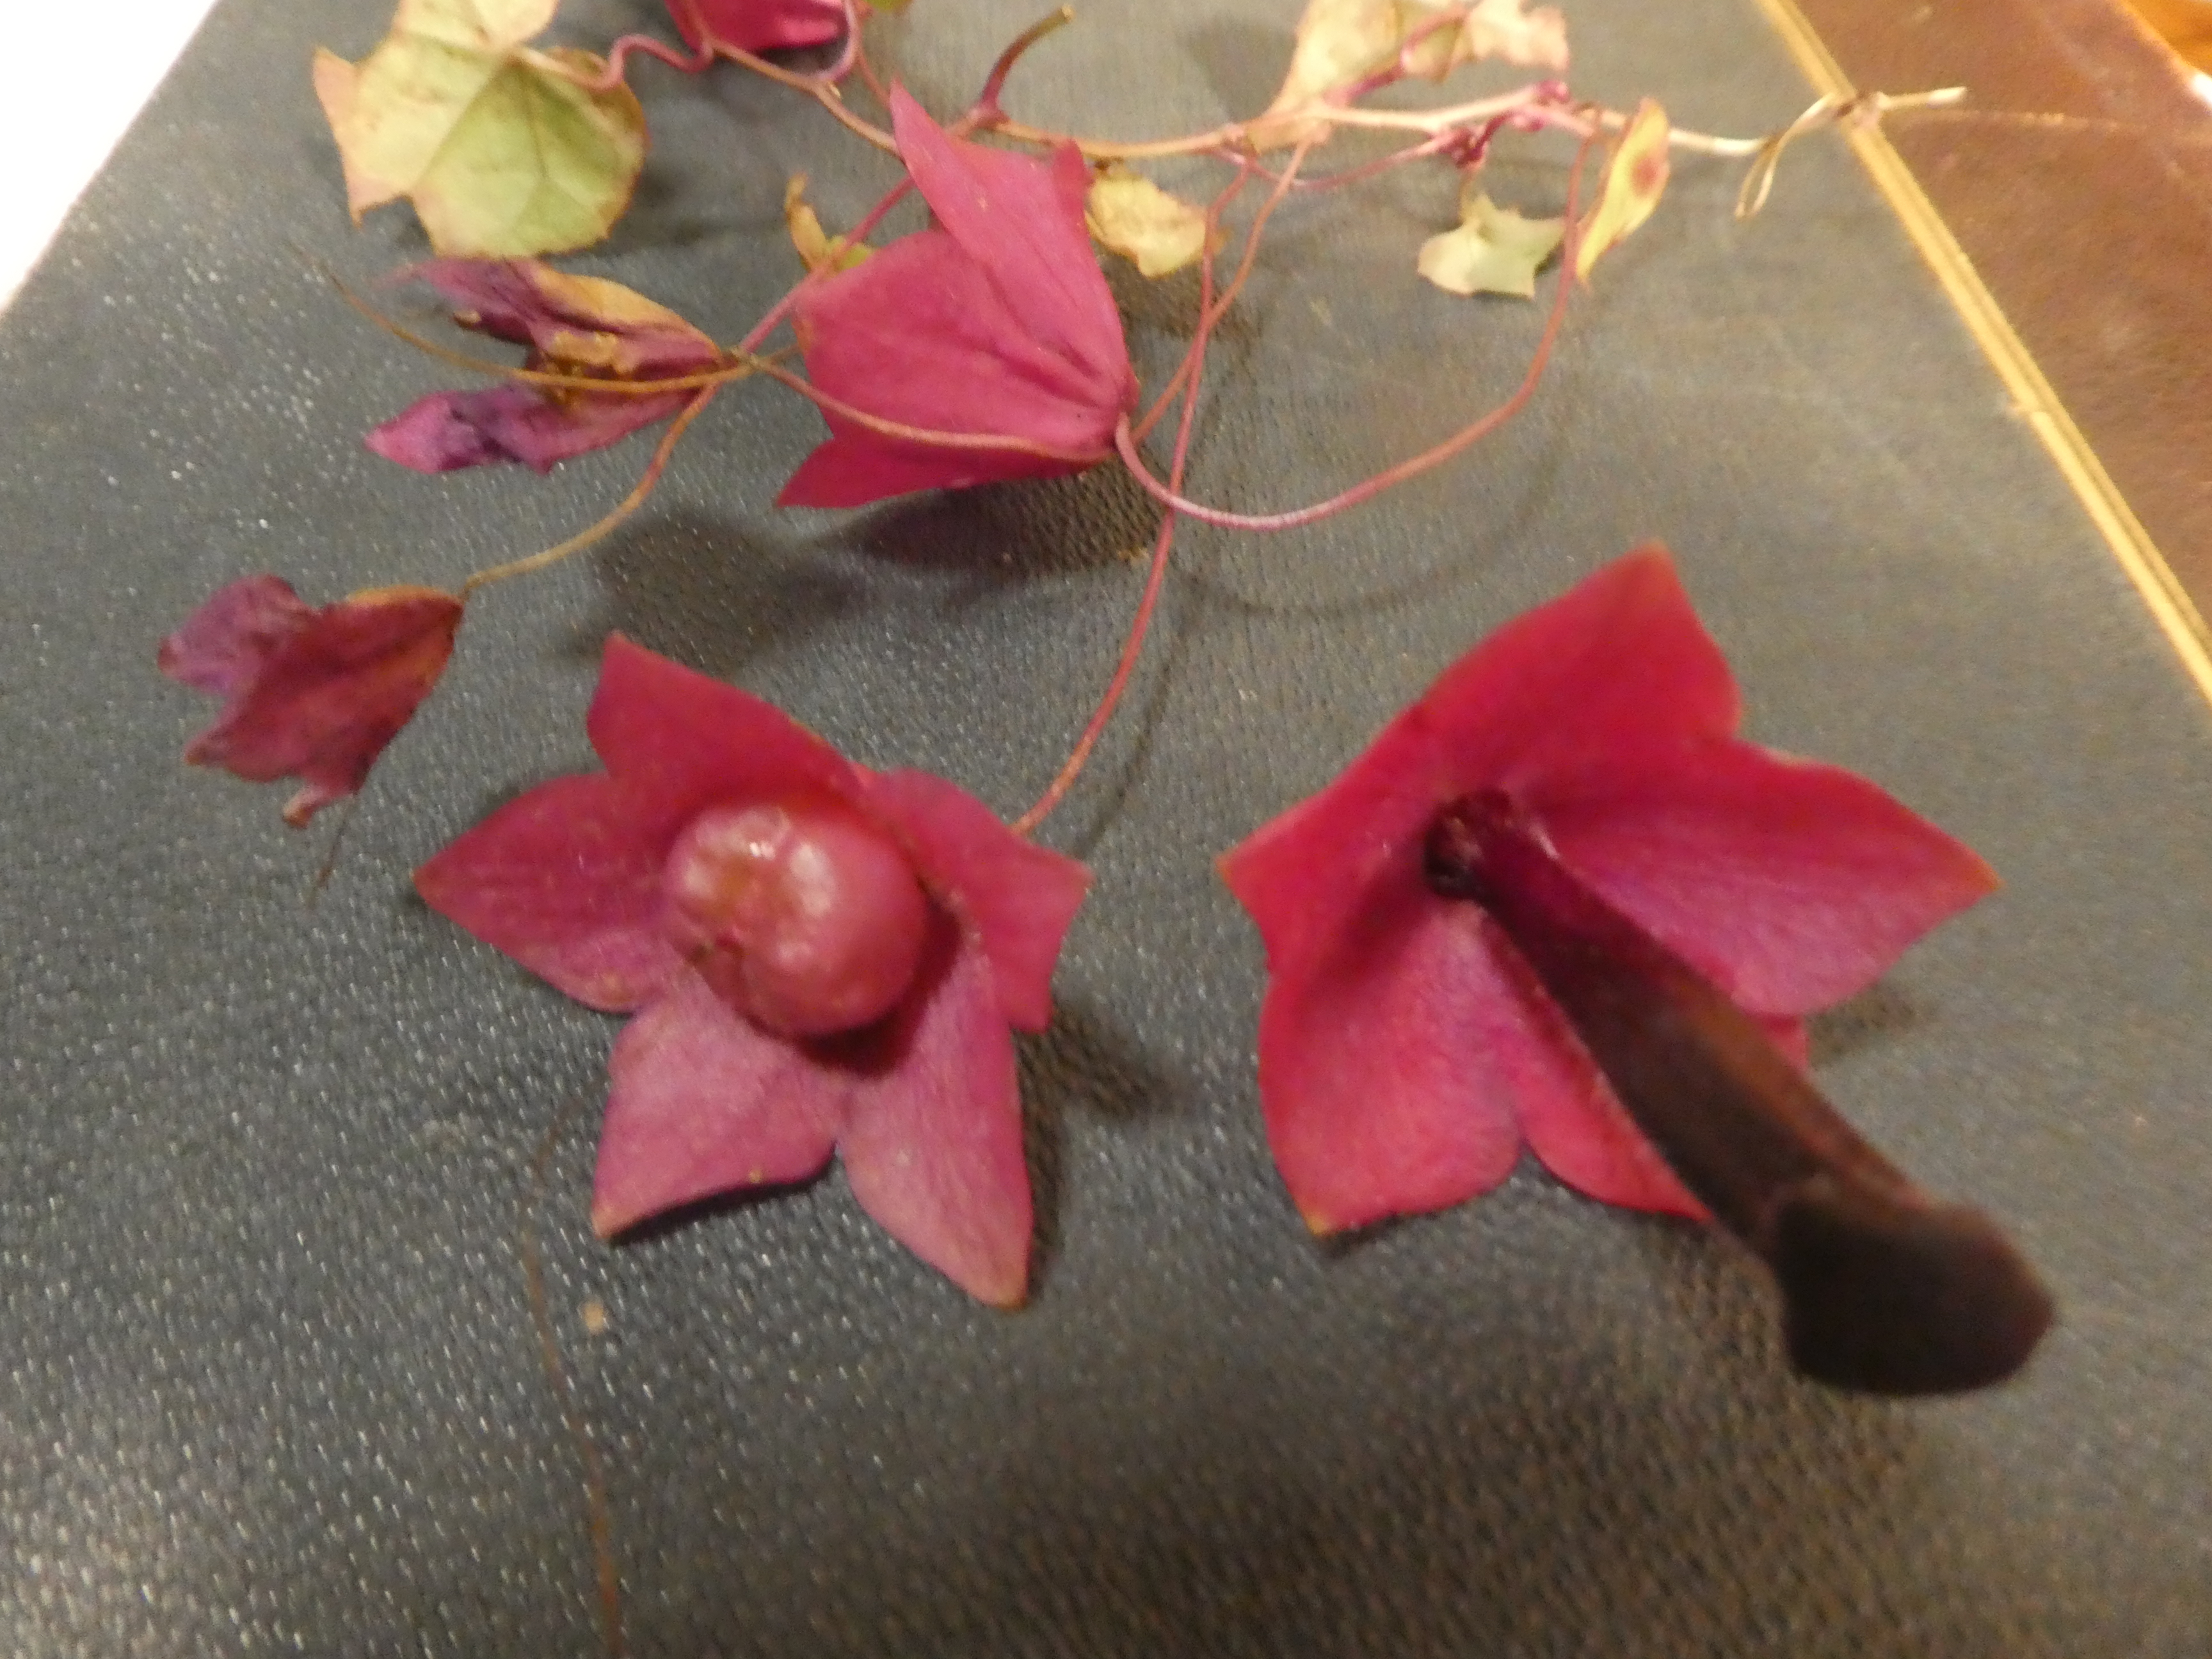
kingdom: Plantae
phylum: Tracheophyta
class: Magnoliopsida
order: Lamiales
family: Plantaginaceae
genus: Rhodochiton
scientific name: Rhodochiton atrosanguineus
